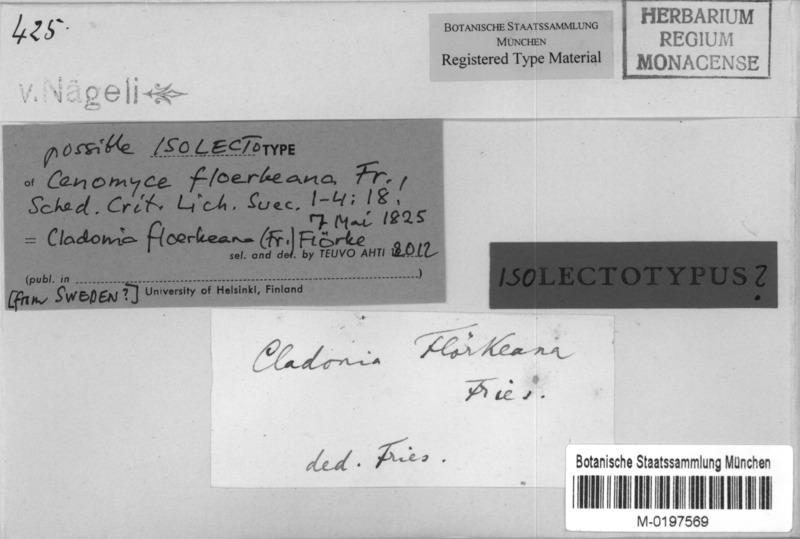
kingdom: Fungi
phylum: Ascomycota
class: Lecanoromycetes
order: Lecanorales
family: Cladoniaceae
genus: Cladonia
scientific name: Cladonia floerkeana
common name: Gritty british soldiers lichen
